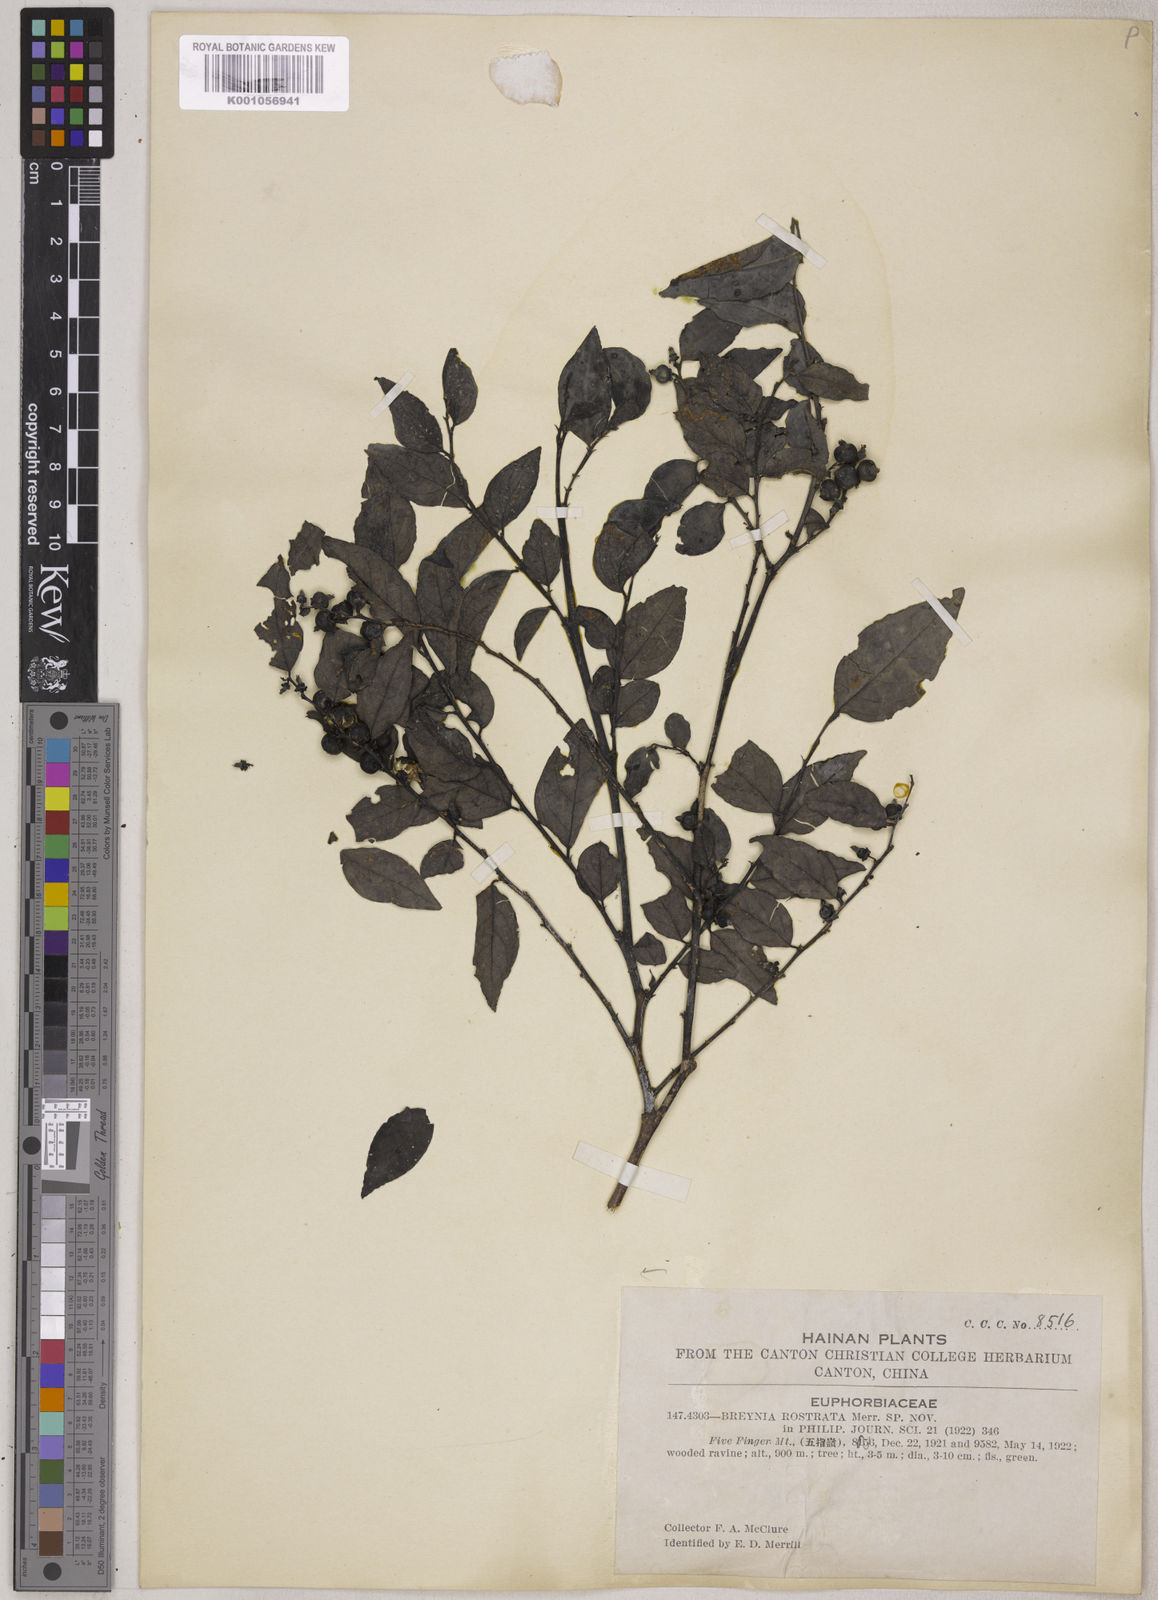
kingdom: Plantae
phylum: Tracheophyta
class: Magnoliopsida
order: Malpighiales
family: Phyllanthaceae
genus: Breynia
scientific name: Breynia rostrata
